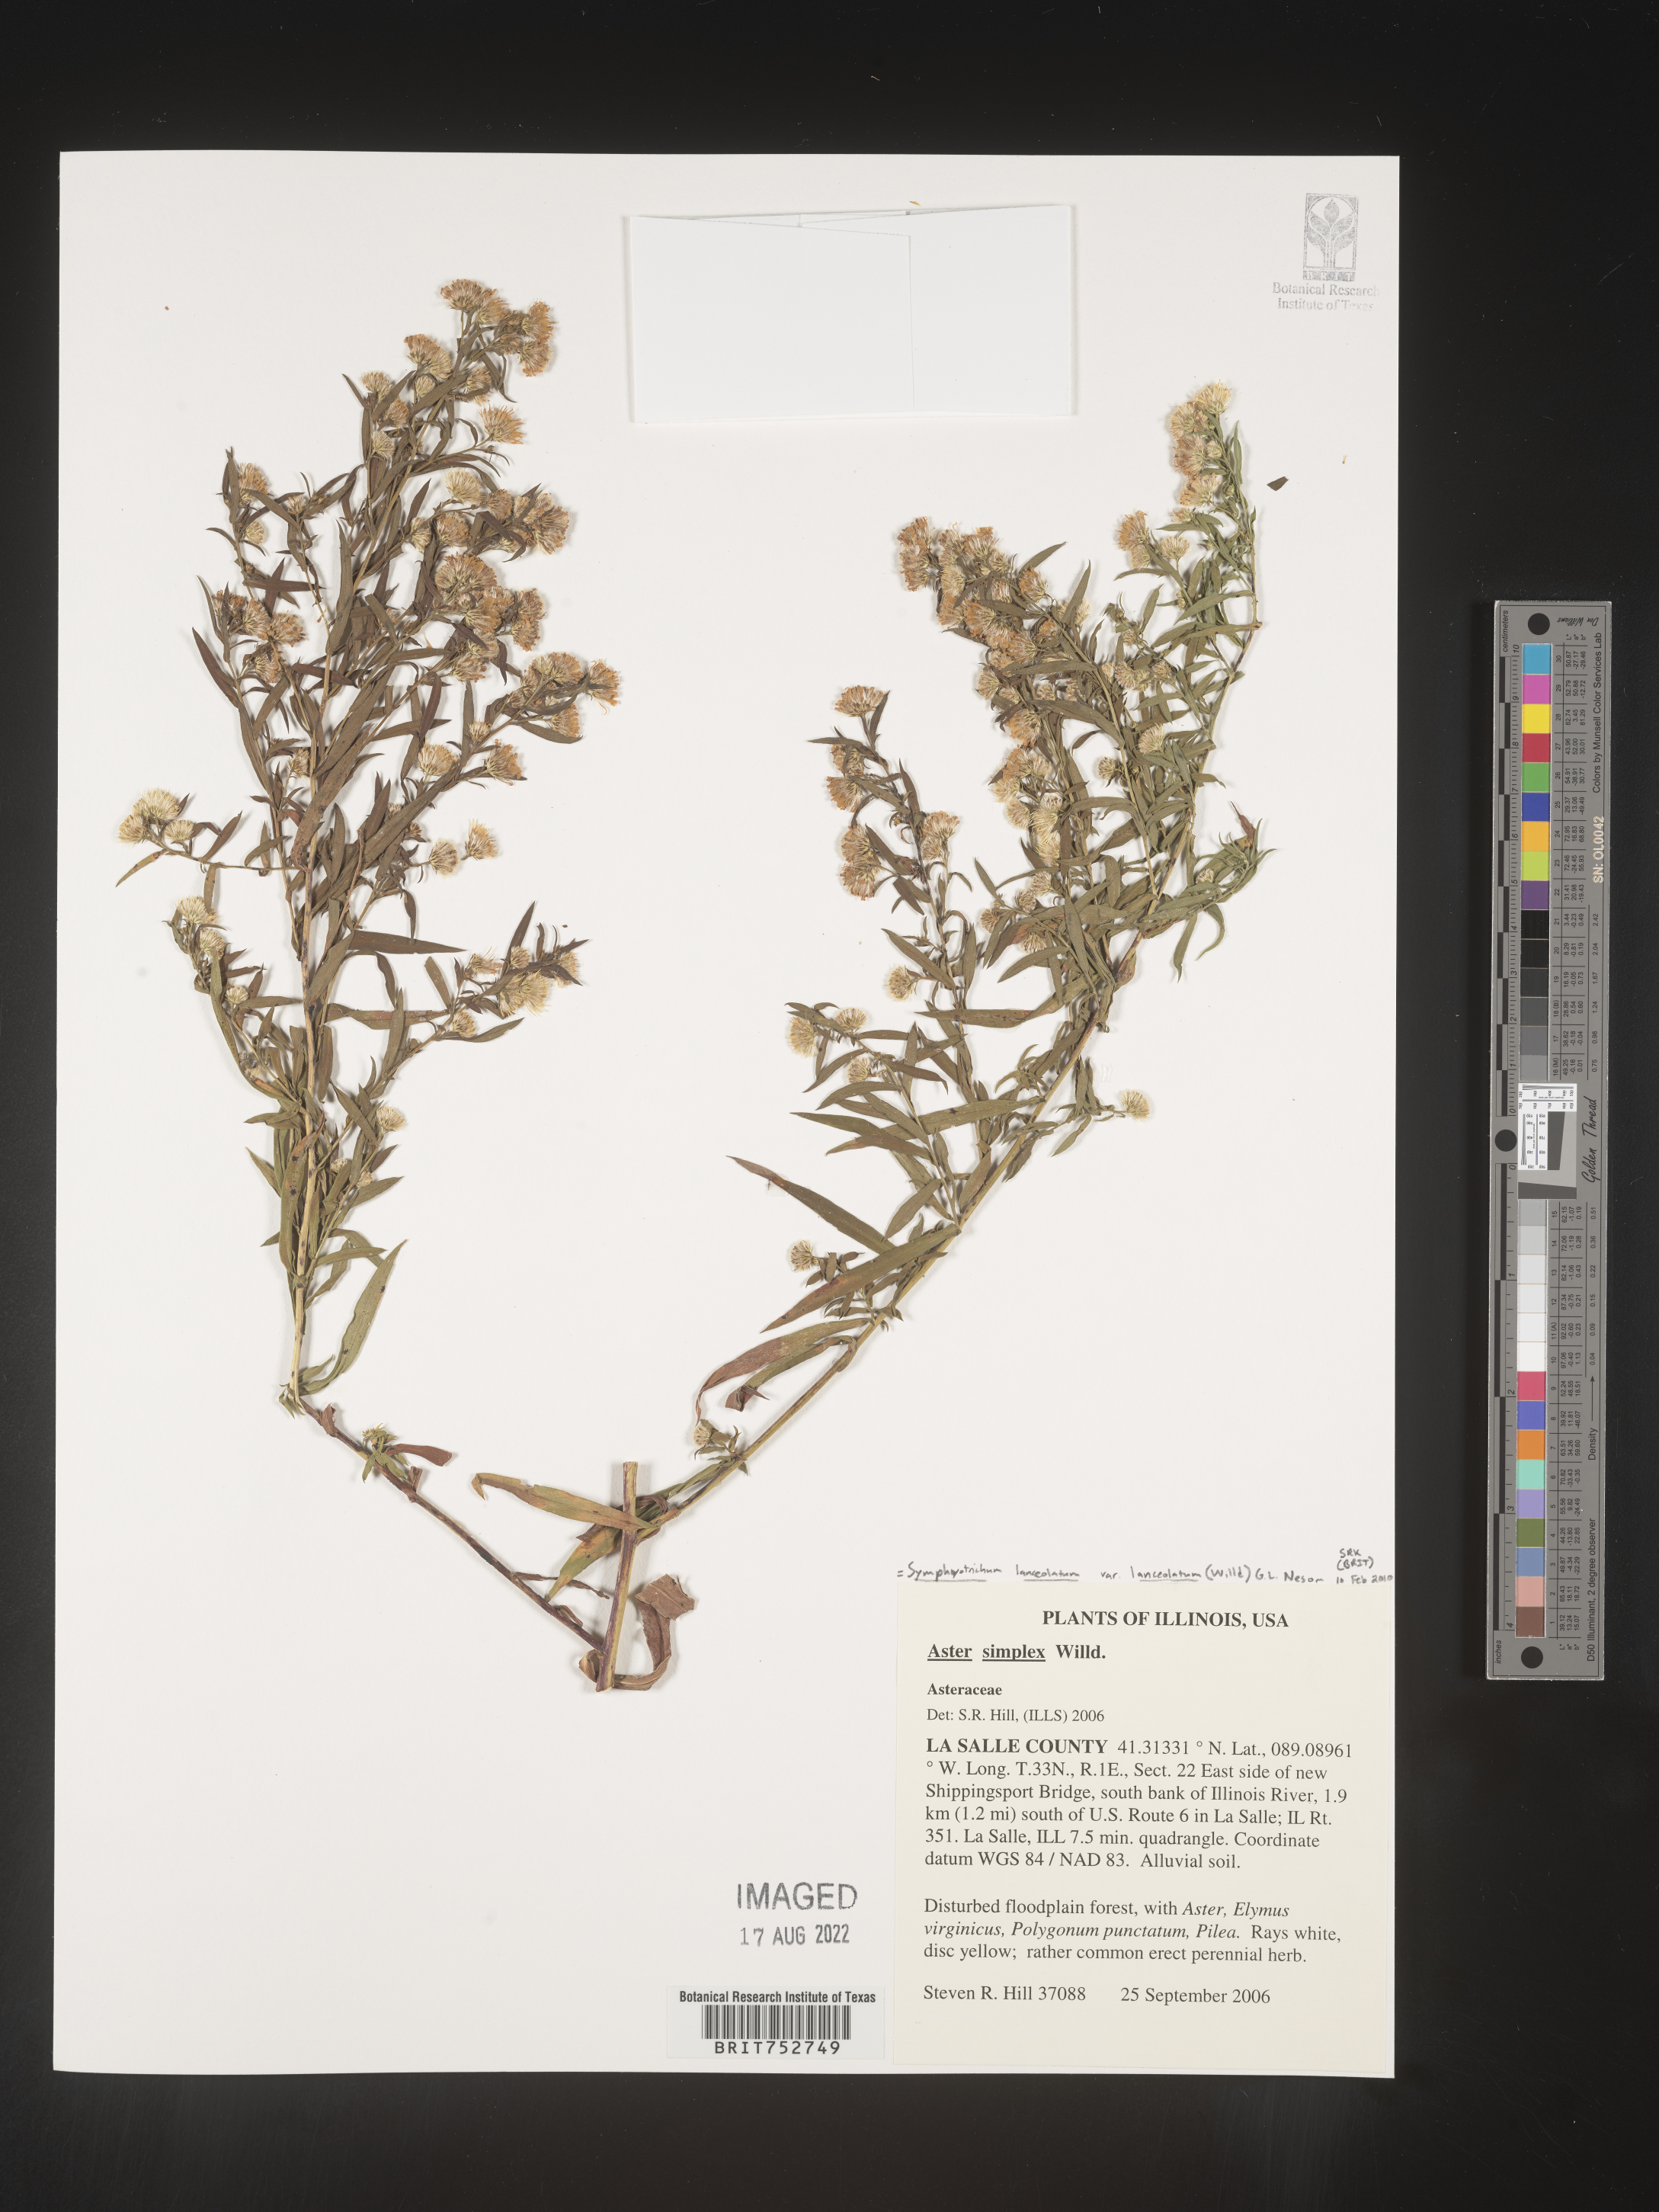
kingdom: Plantae
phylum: Tracheophyta
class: Magnoliopsida
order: Asterales
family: Asteraceae
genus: Symphyotrichum
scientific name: Symphyotrichum lanceolatum
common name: Panicled aster
